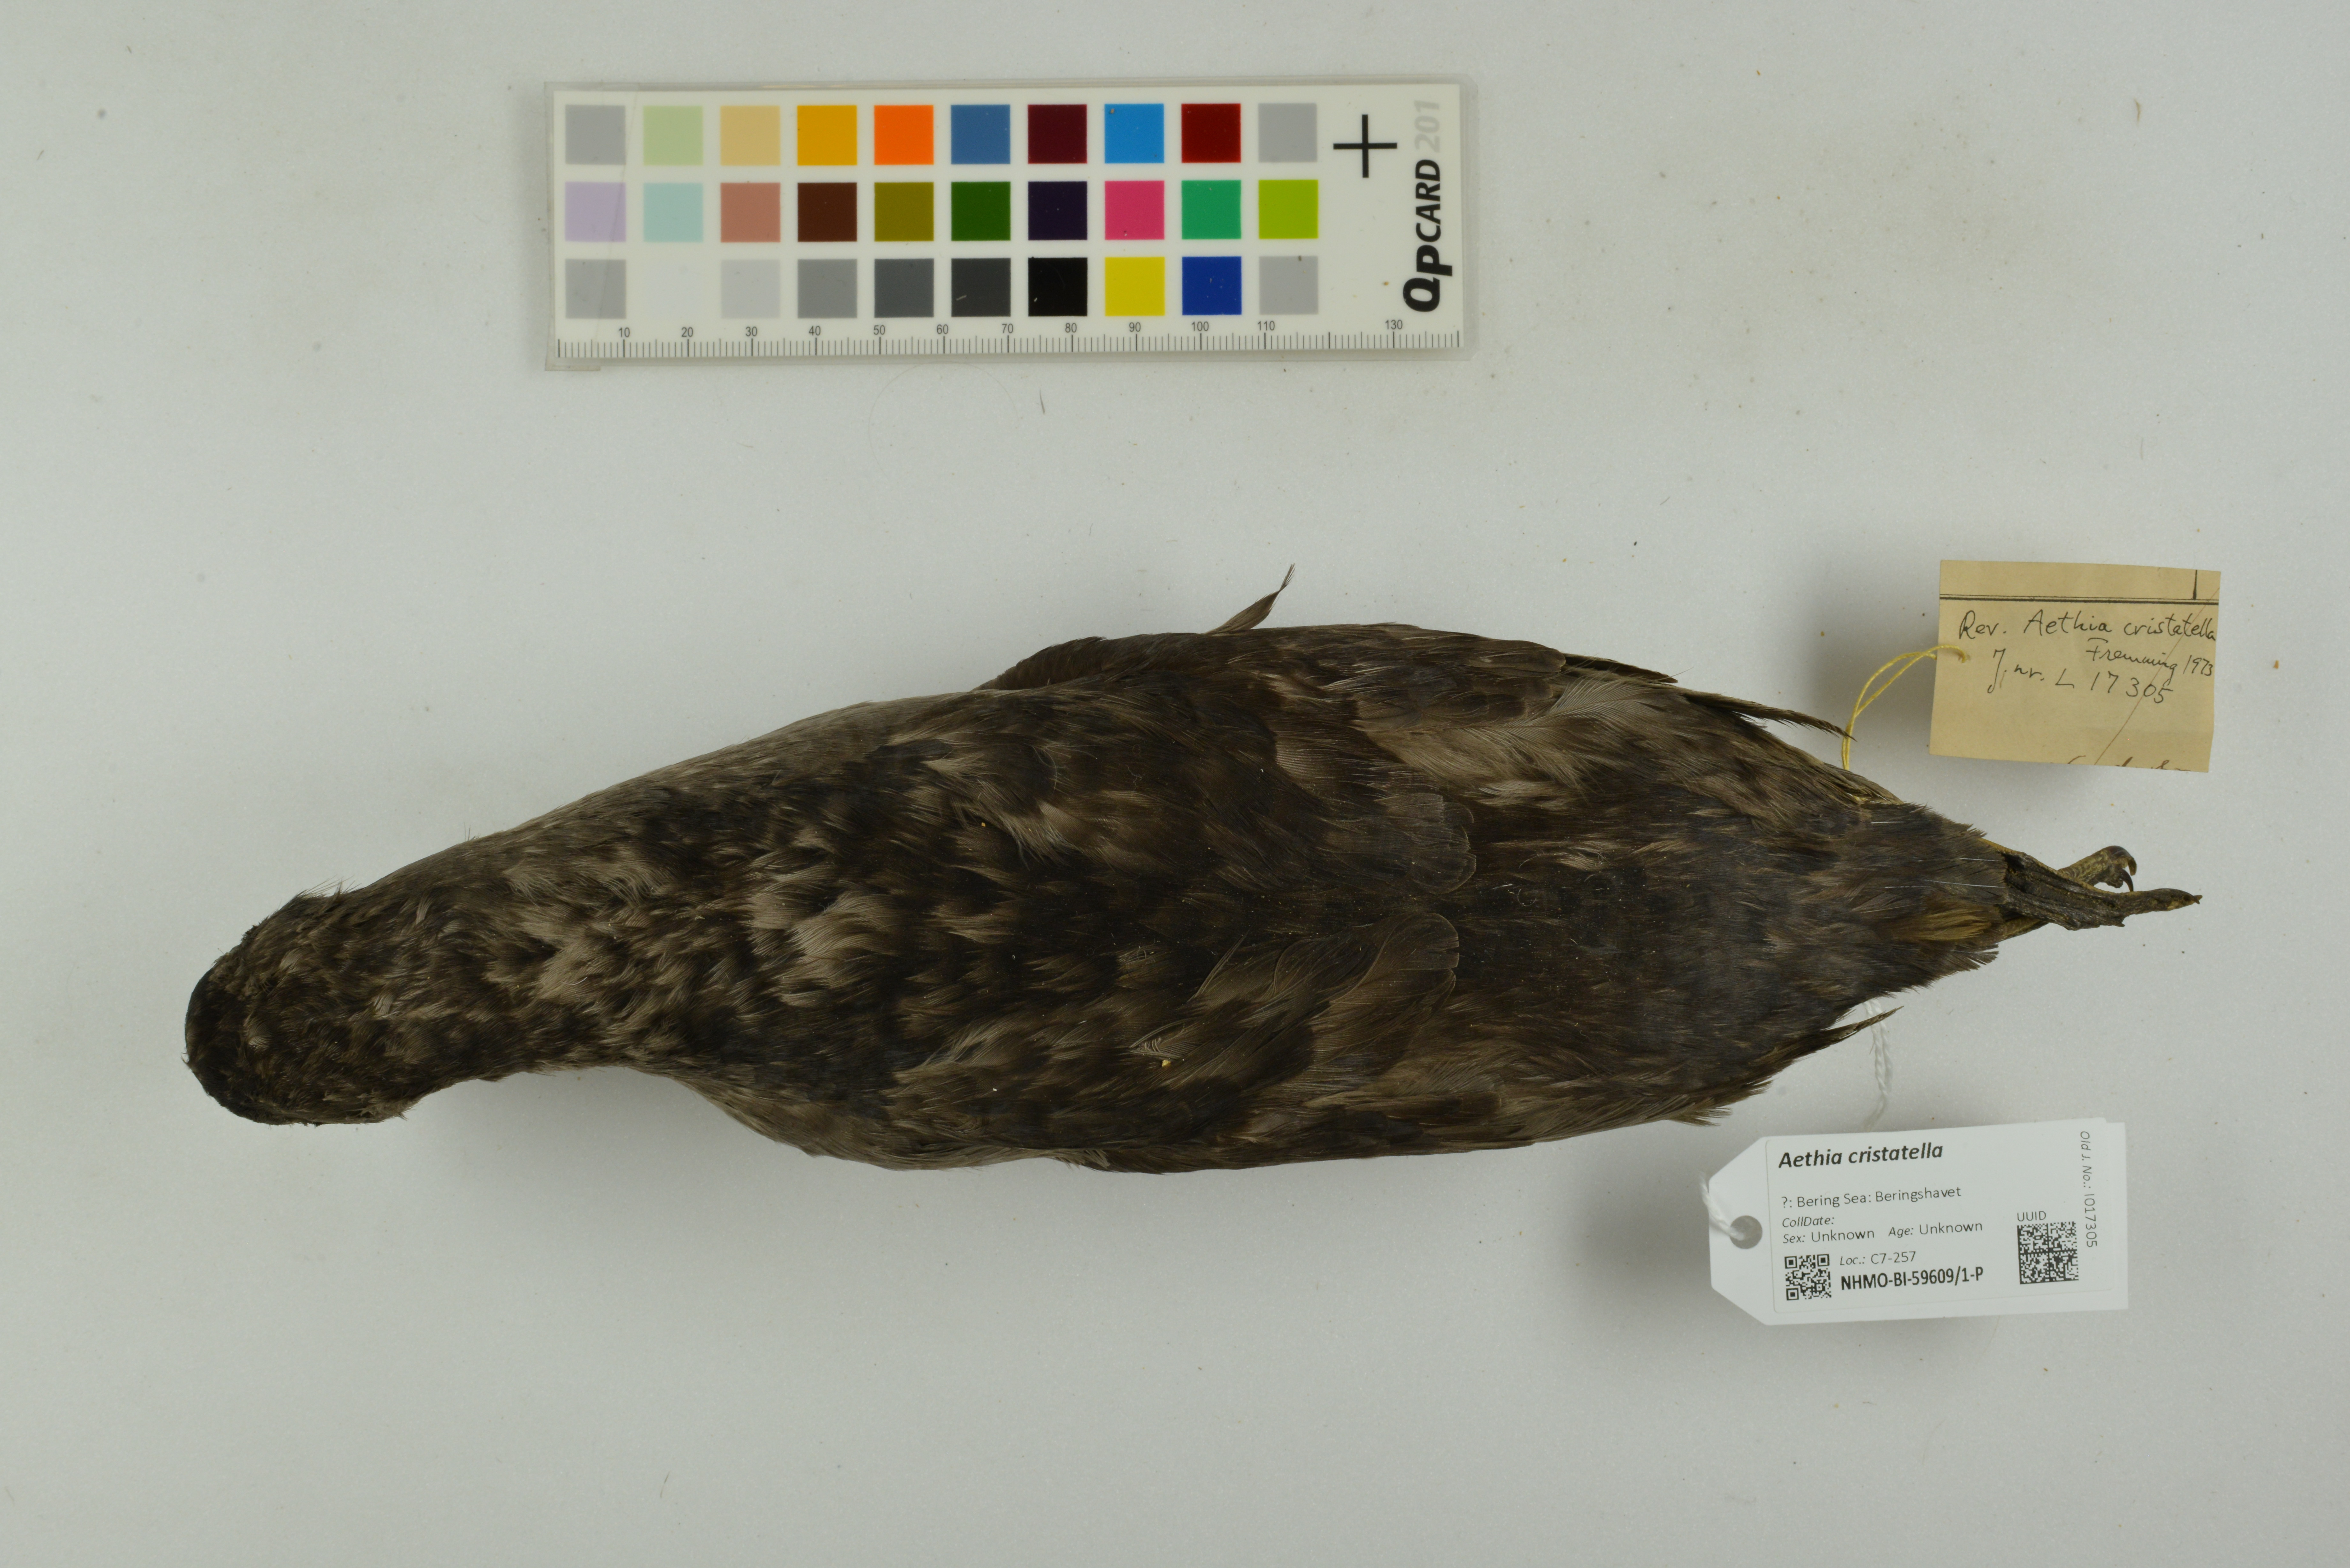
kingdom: Animalia
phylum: Chordata
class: Aves
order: Charadriiformes
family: Alcidae
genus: Aethia
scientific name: Aethia cristatella
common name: Crested auklet
